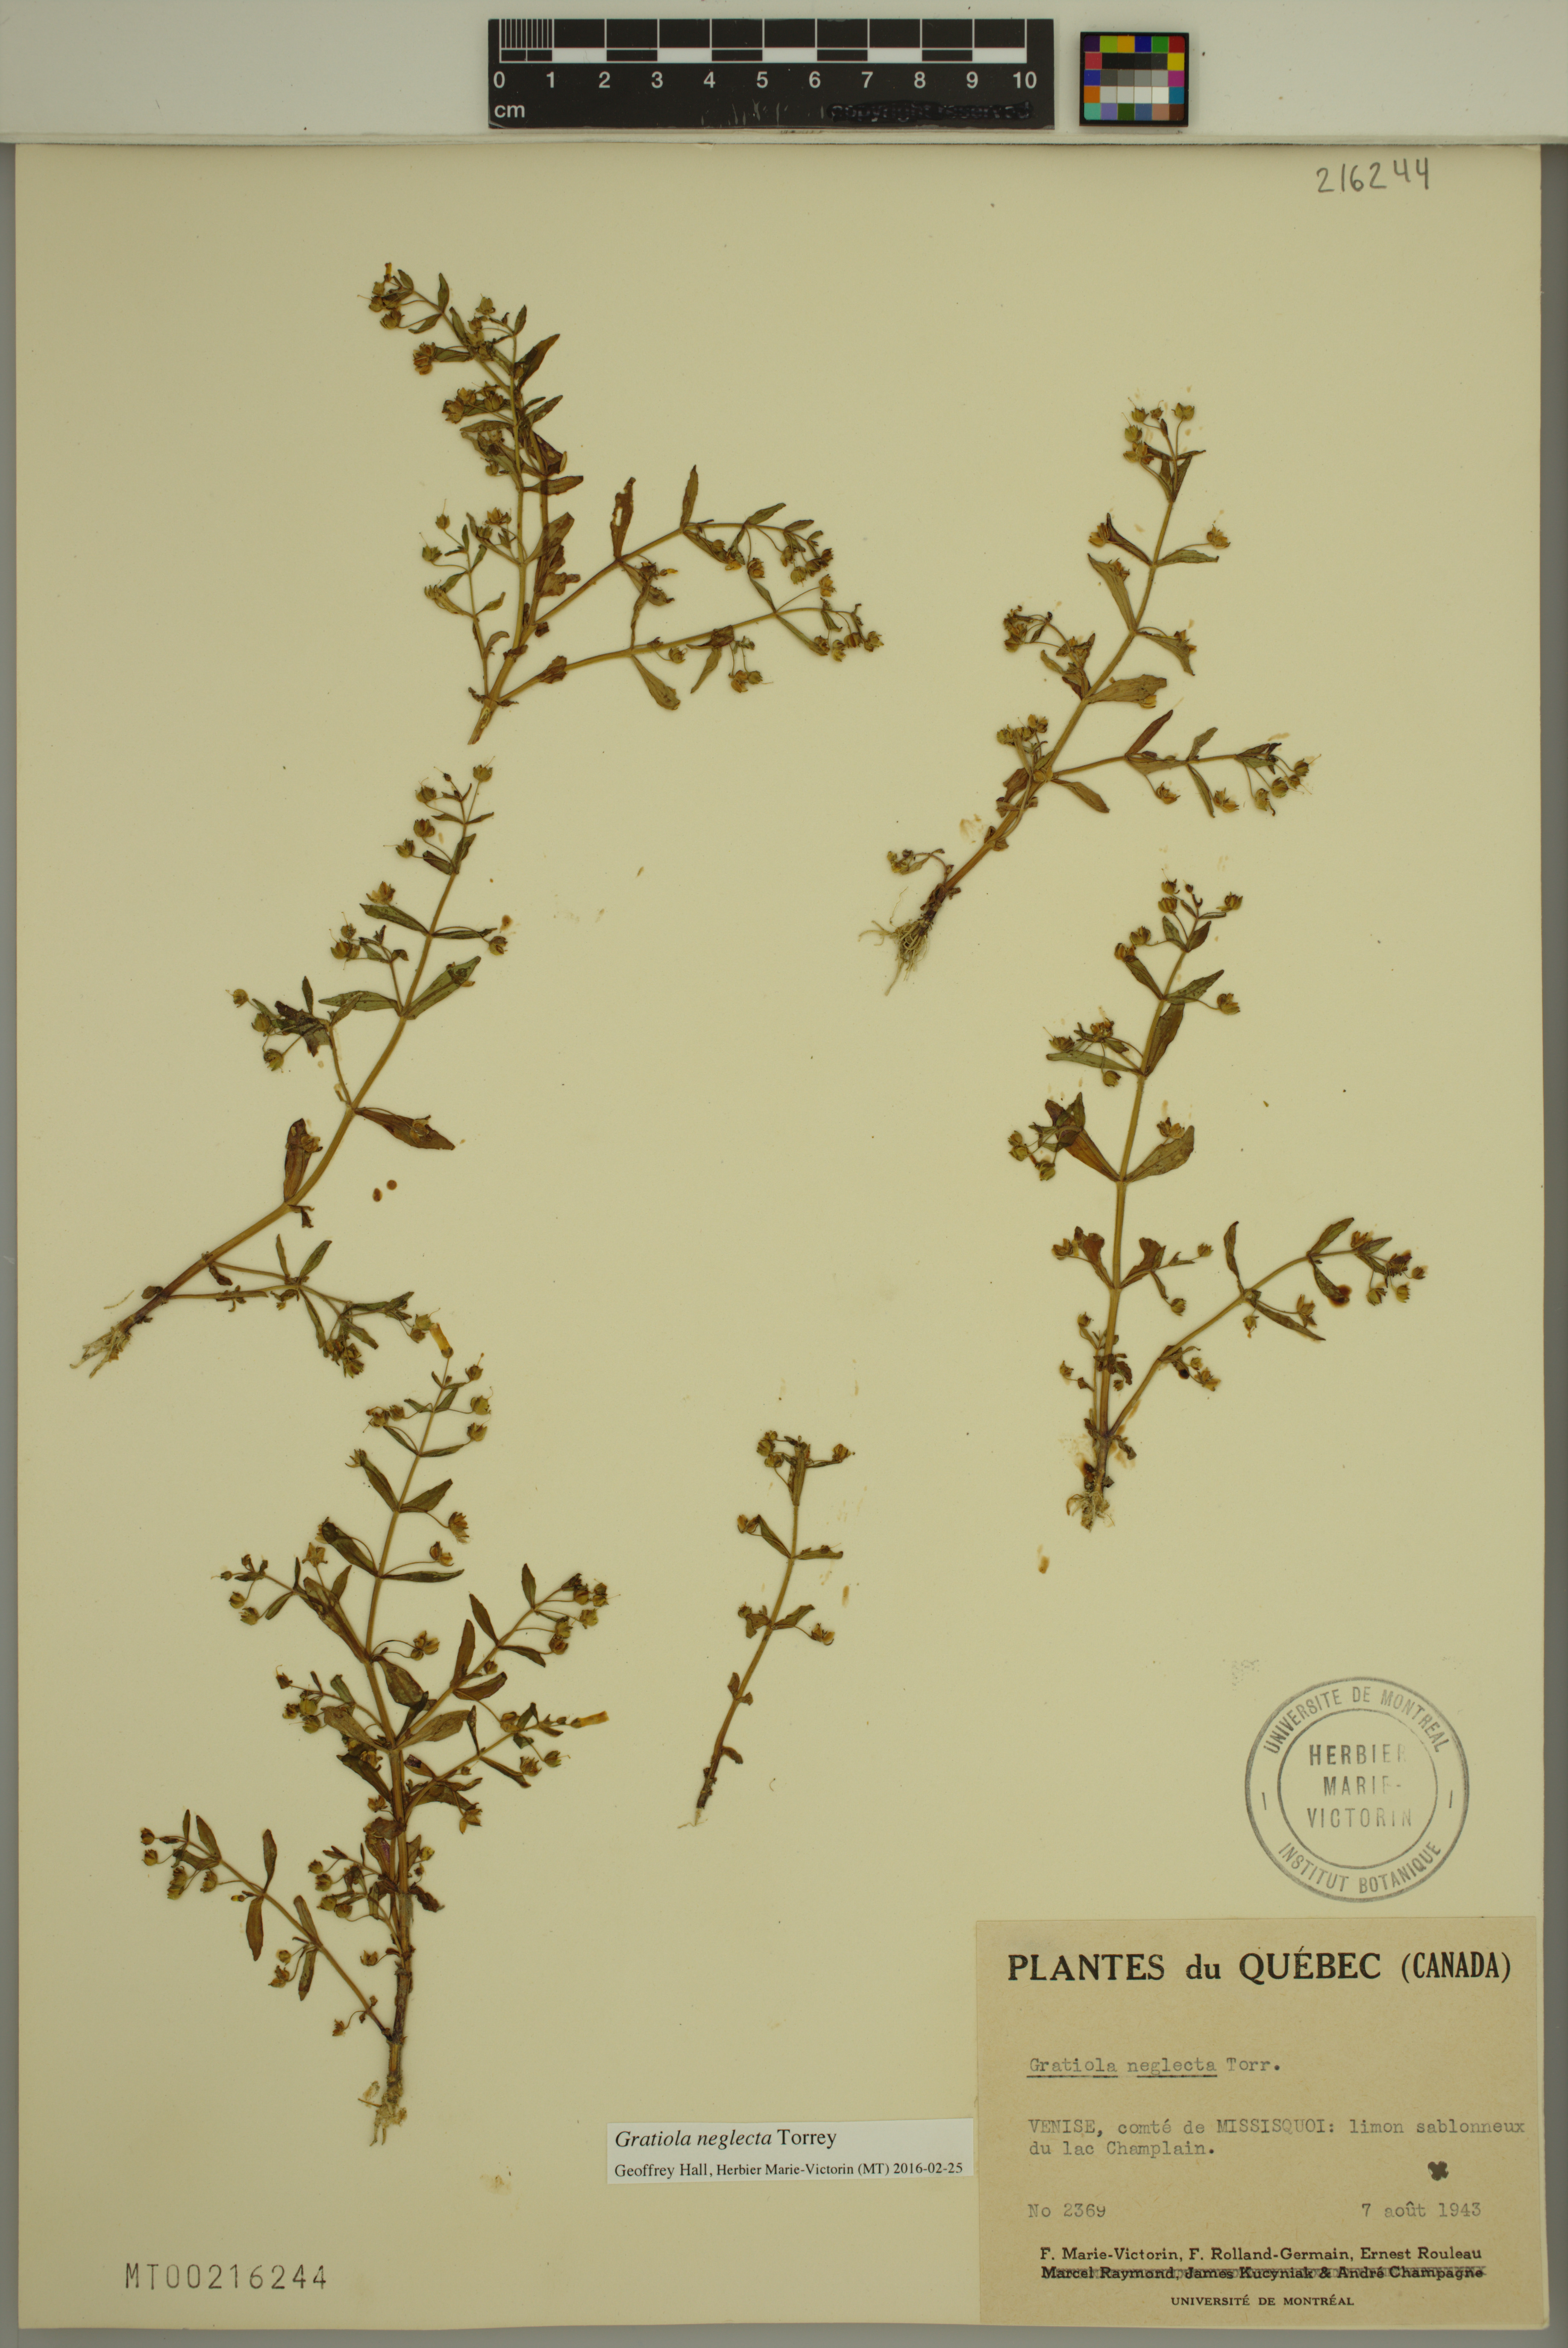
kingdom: Plantae
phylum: Tracheophyta
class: Magnoliopsida
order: Lamiales
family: Plantaginaceae
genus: Gratiola
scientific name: Gratiola neglecta
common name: American hedge-hyssop
